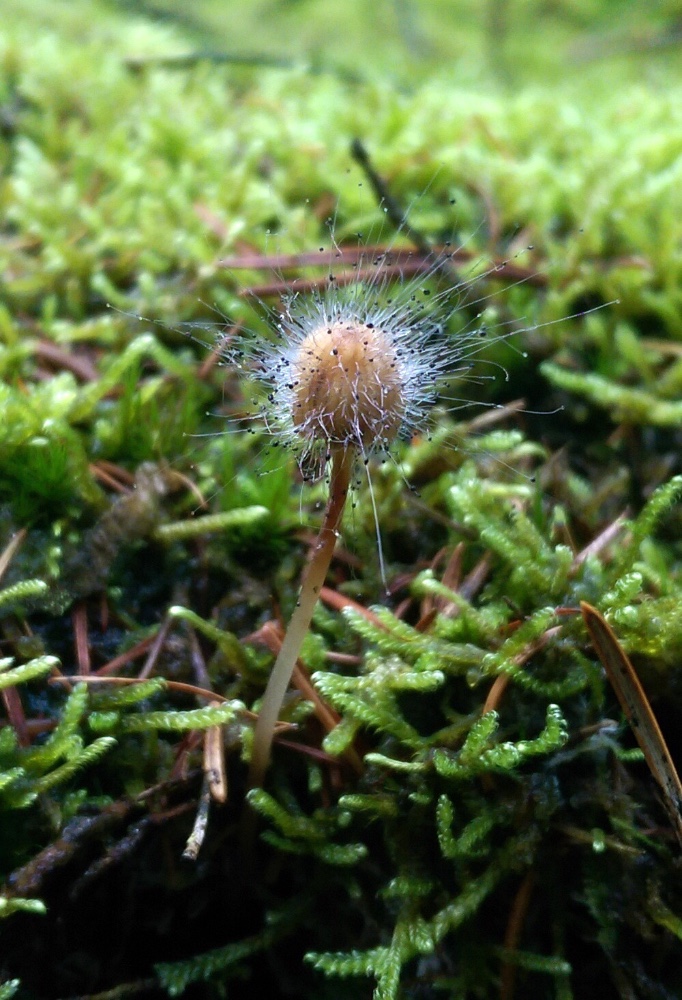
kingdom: Fungi
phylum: Mucoromycota
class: Mucoromycetes
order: Mucorales
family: Phycomycetaceae
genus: Spinellus
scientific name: Spinellus fusiger
